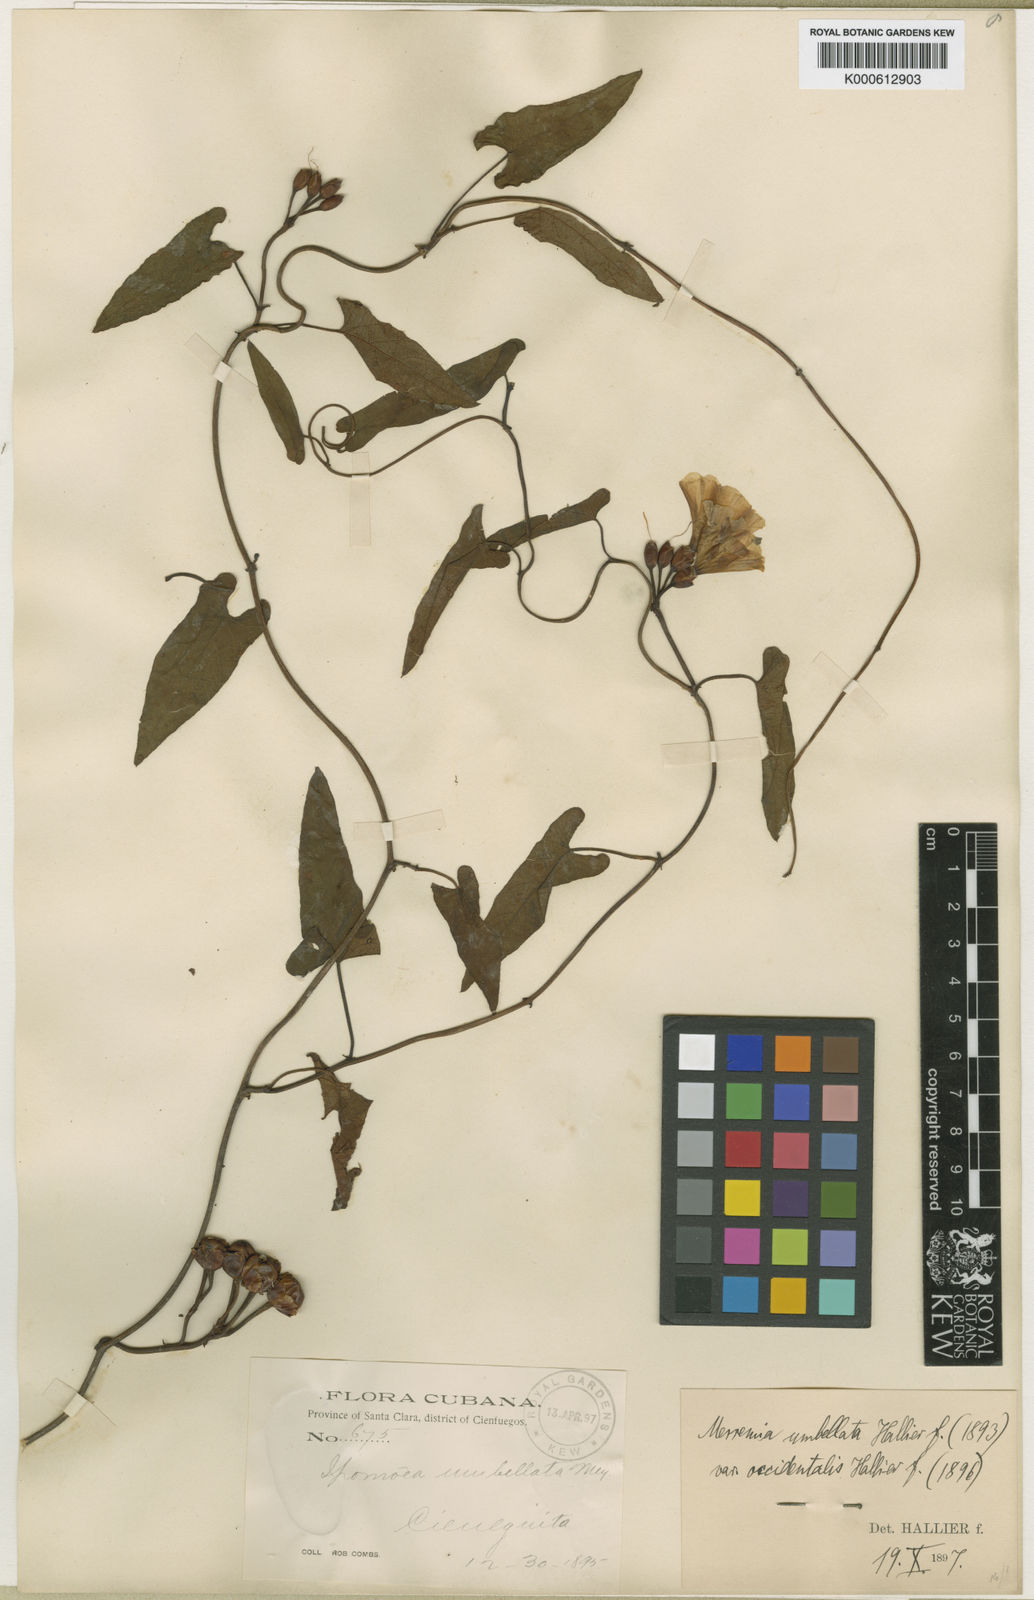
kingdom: Plantae
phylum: Tracheophyta
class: Magnoliopsida
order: Solanales
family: Convolvulaceae
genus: Camonea
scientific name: Camonea umbellata
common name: Hogvine
